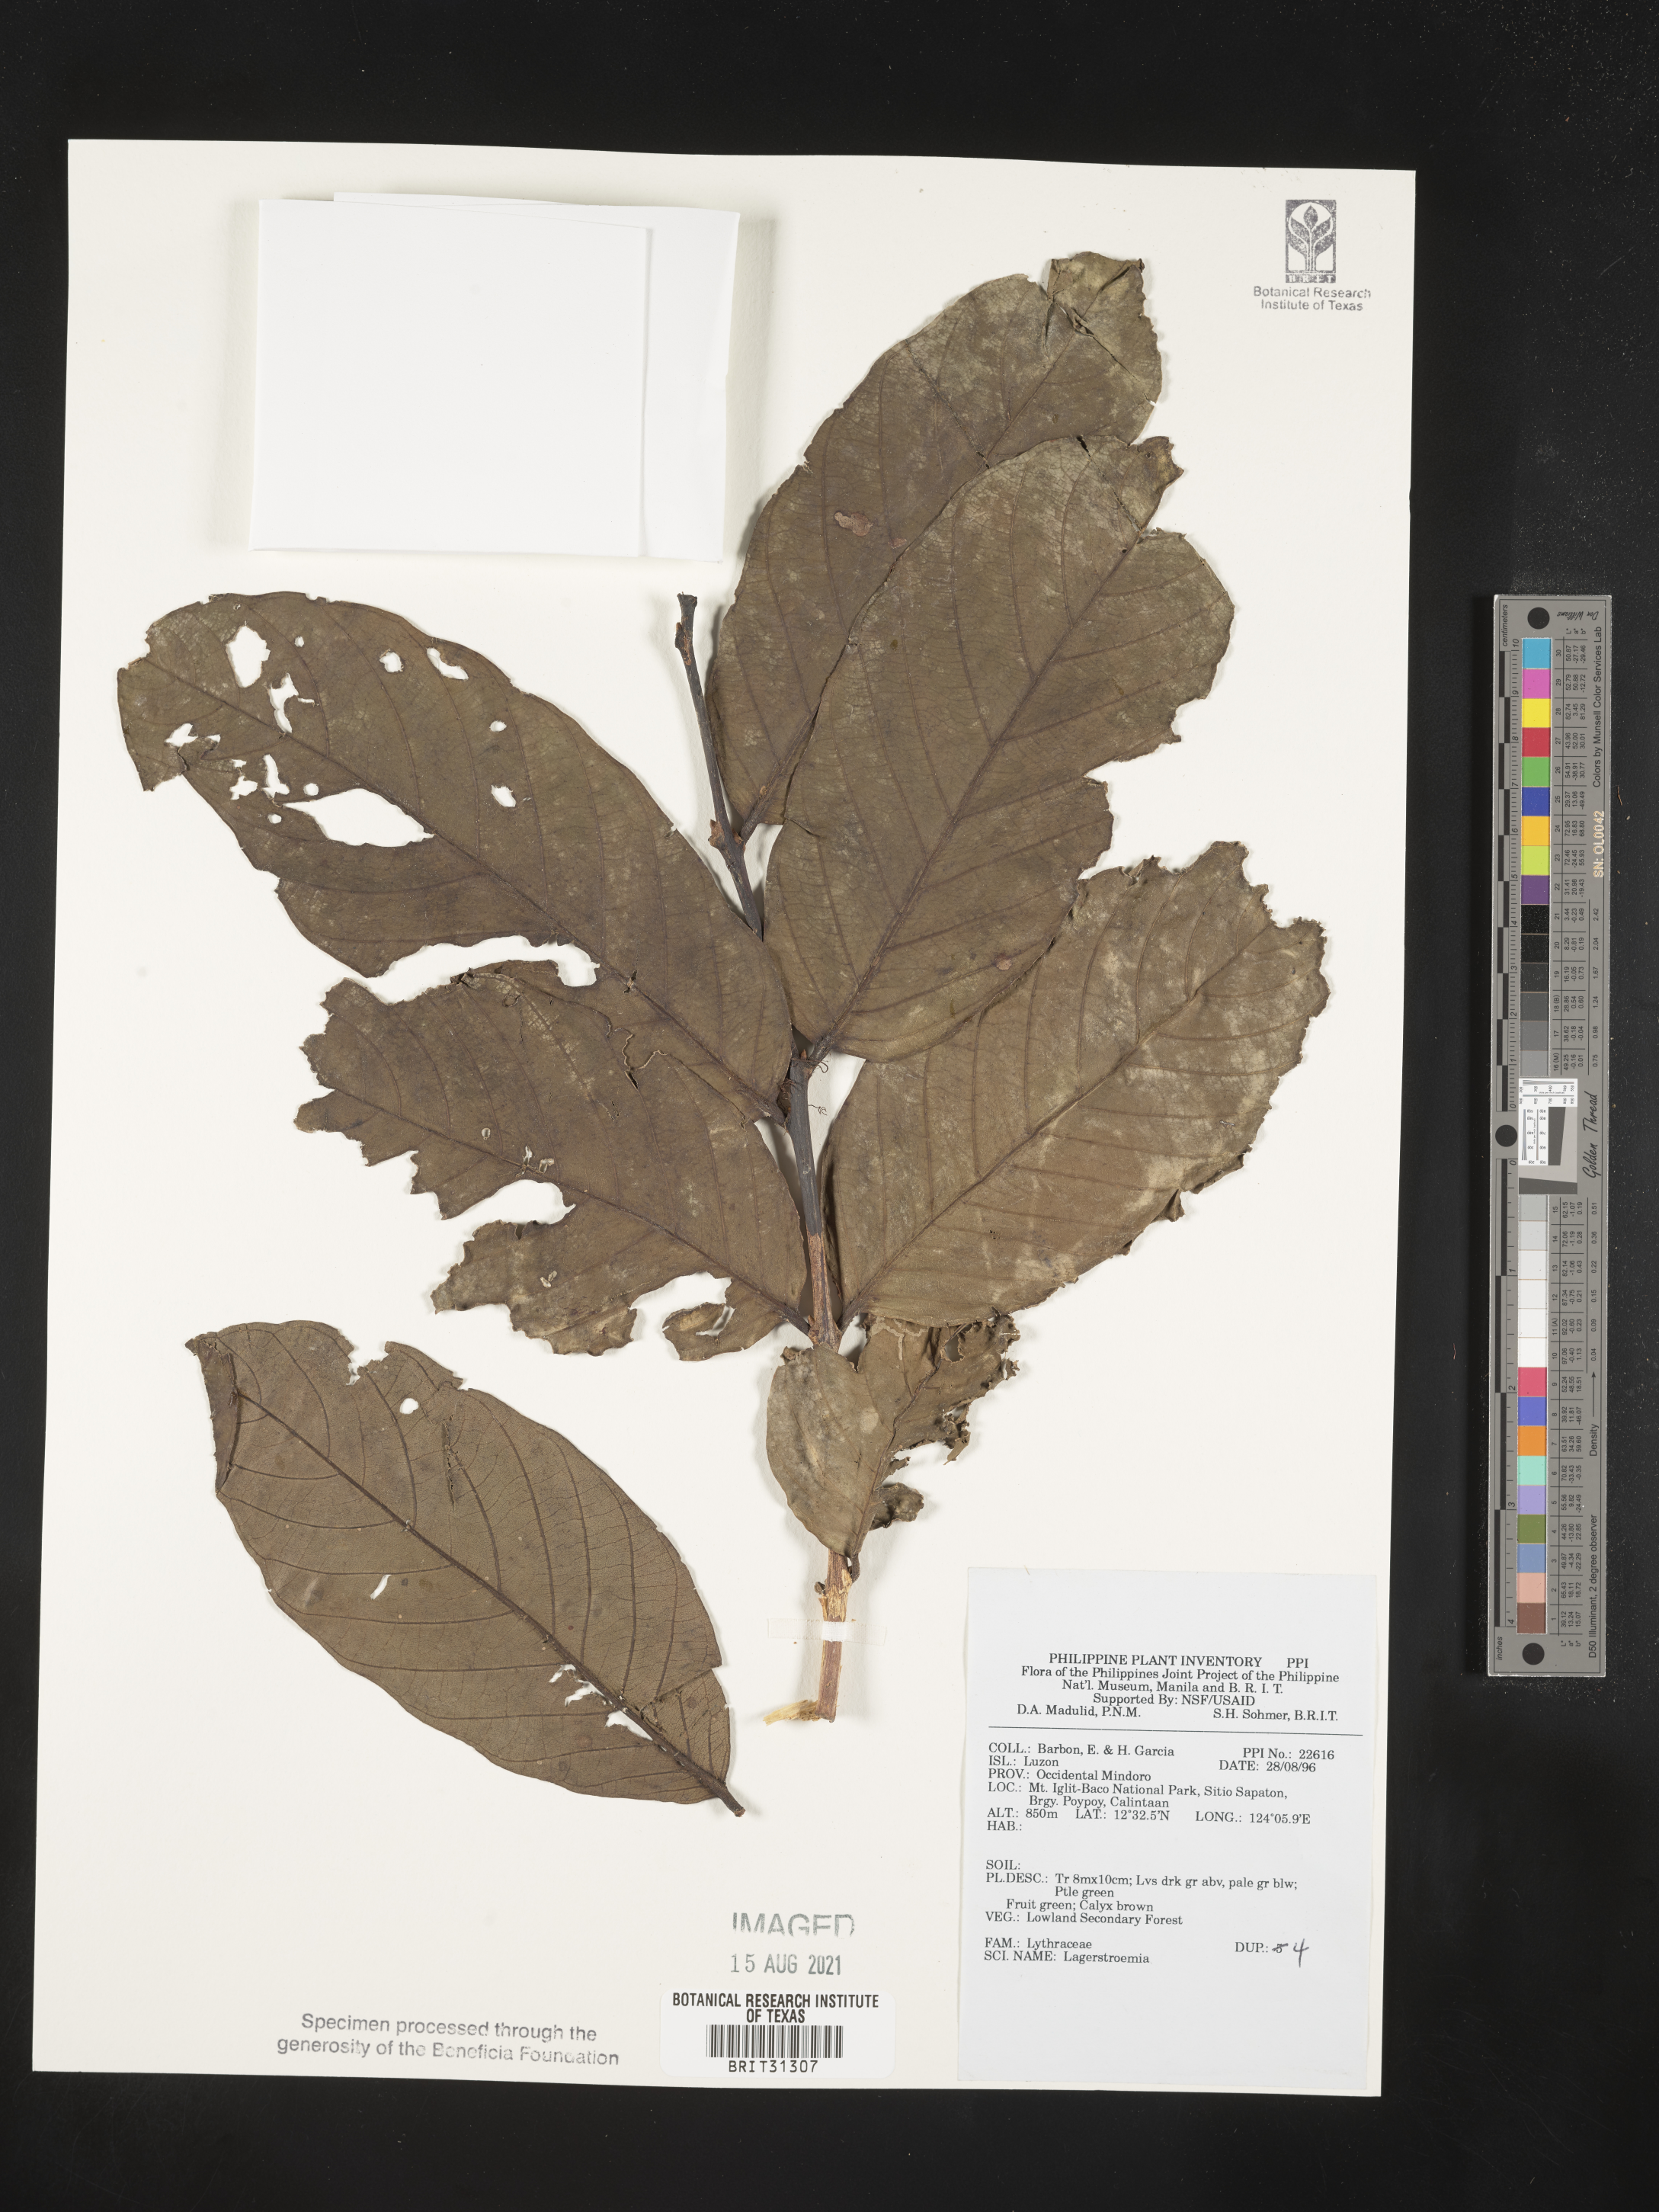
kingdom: Plantae
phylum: Tracheophyta
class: Magnoliopsida
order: Myrtales
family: Lythraceae
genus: Lagerstroemia
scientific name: Lagerstroemia
